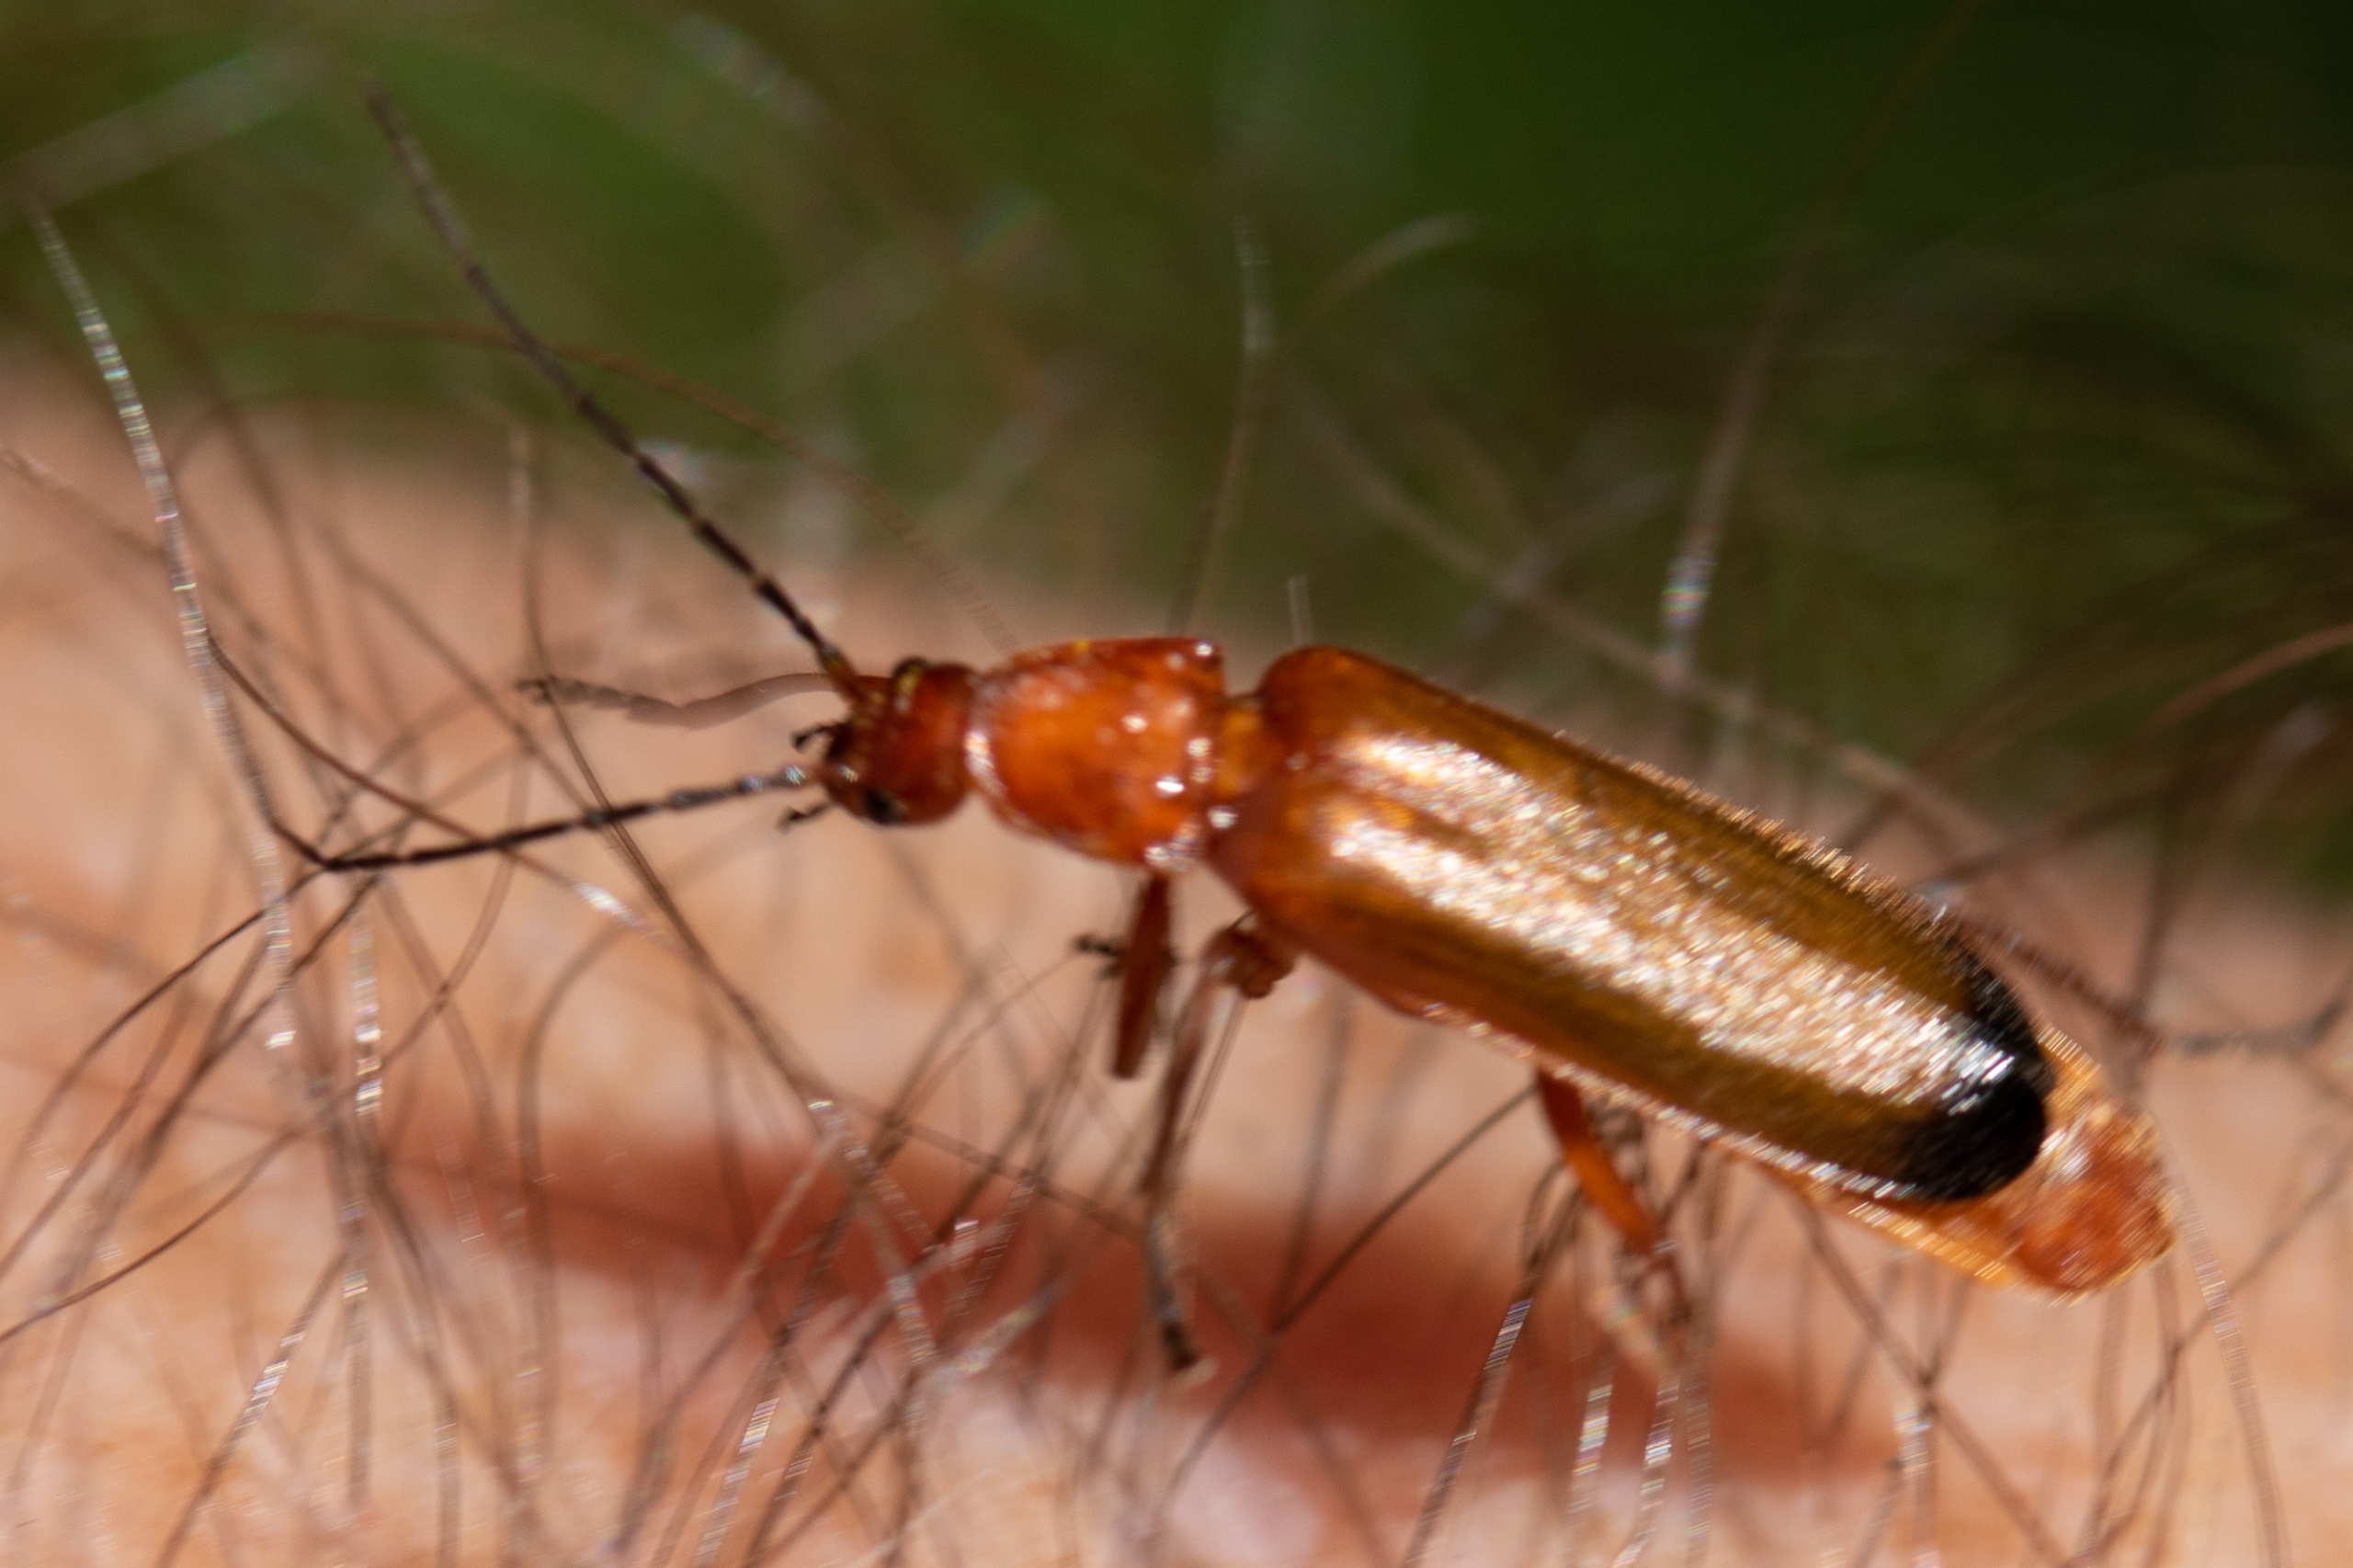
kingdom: Animalia
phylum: Arthropoda
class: Insecta
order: Coleoptera
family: Cantharidae
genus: Rhagonycha
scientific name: Rhagonycha fulva
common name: Præstebille
